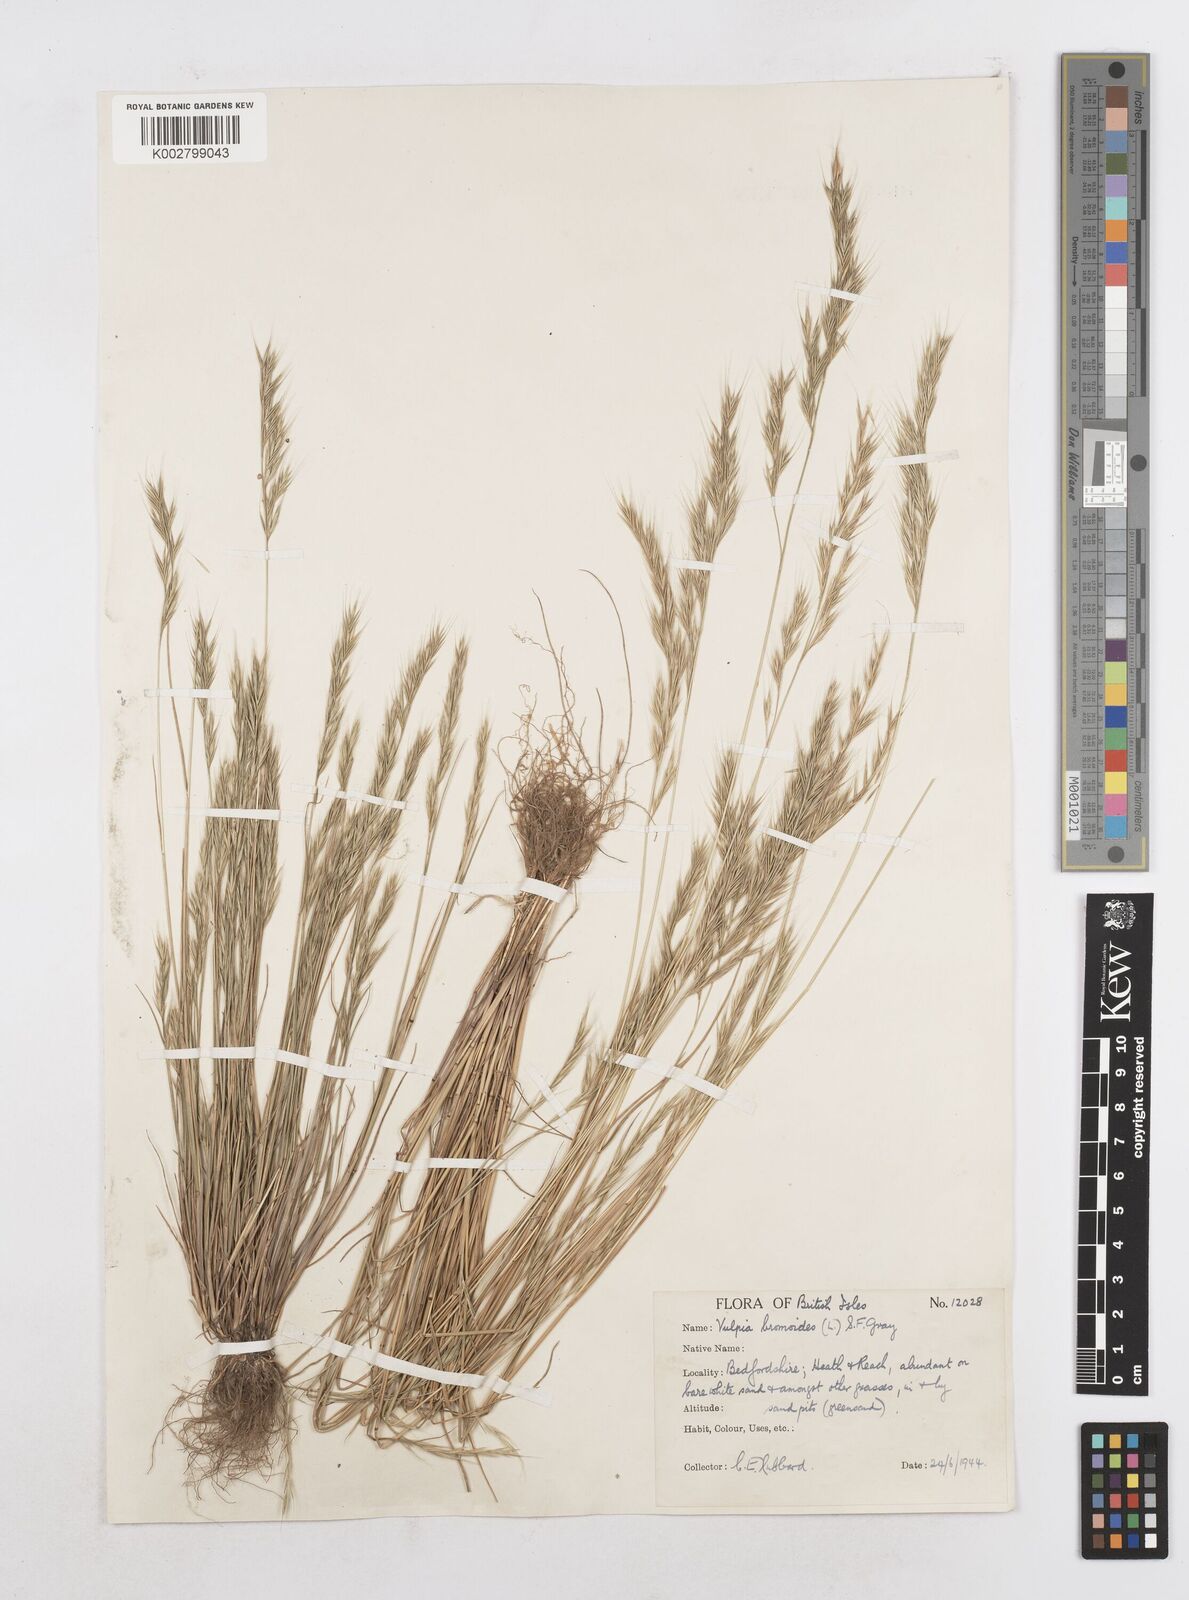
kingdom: Plantae
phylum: Tracheophyta
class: Liliopsida
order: Poales
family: Poaceae
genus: Festuca
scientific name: Festuca bromoides
